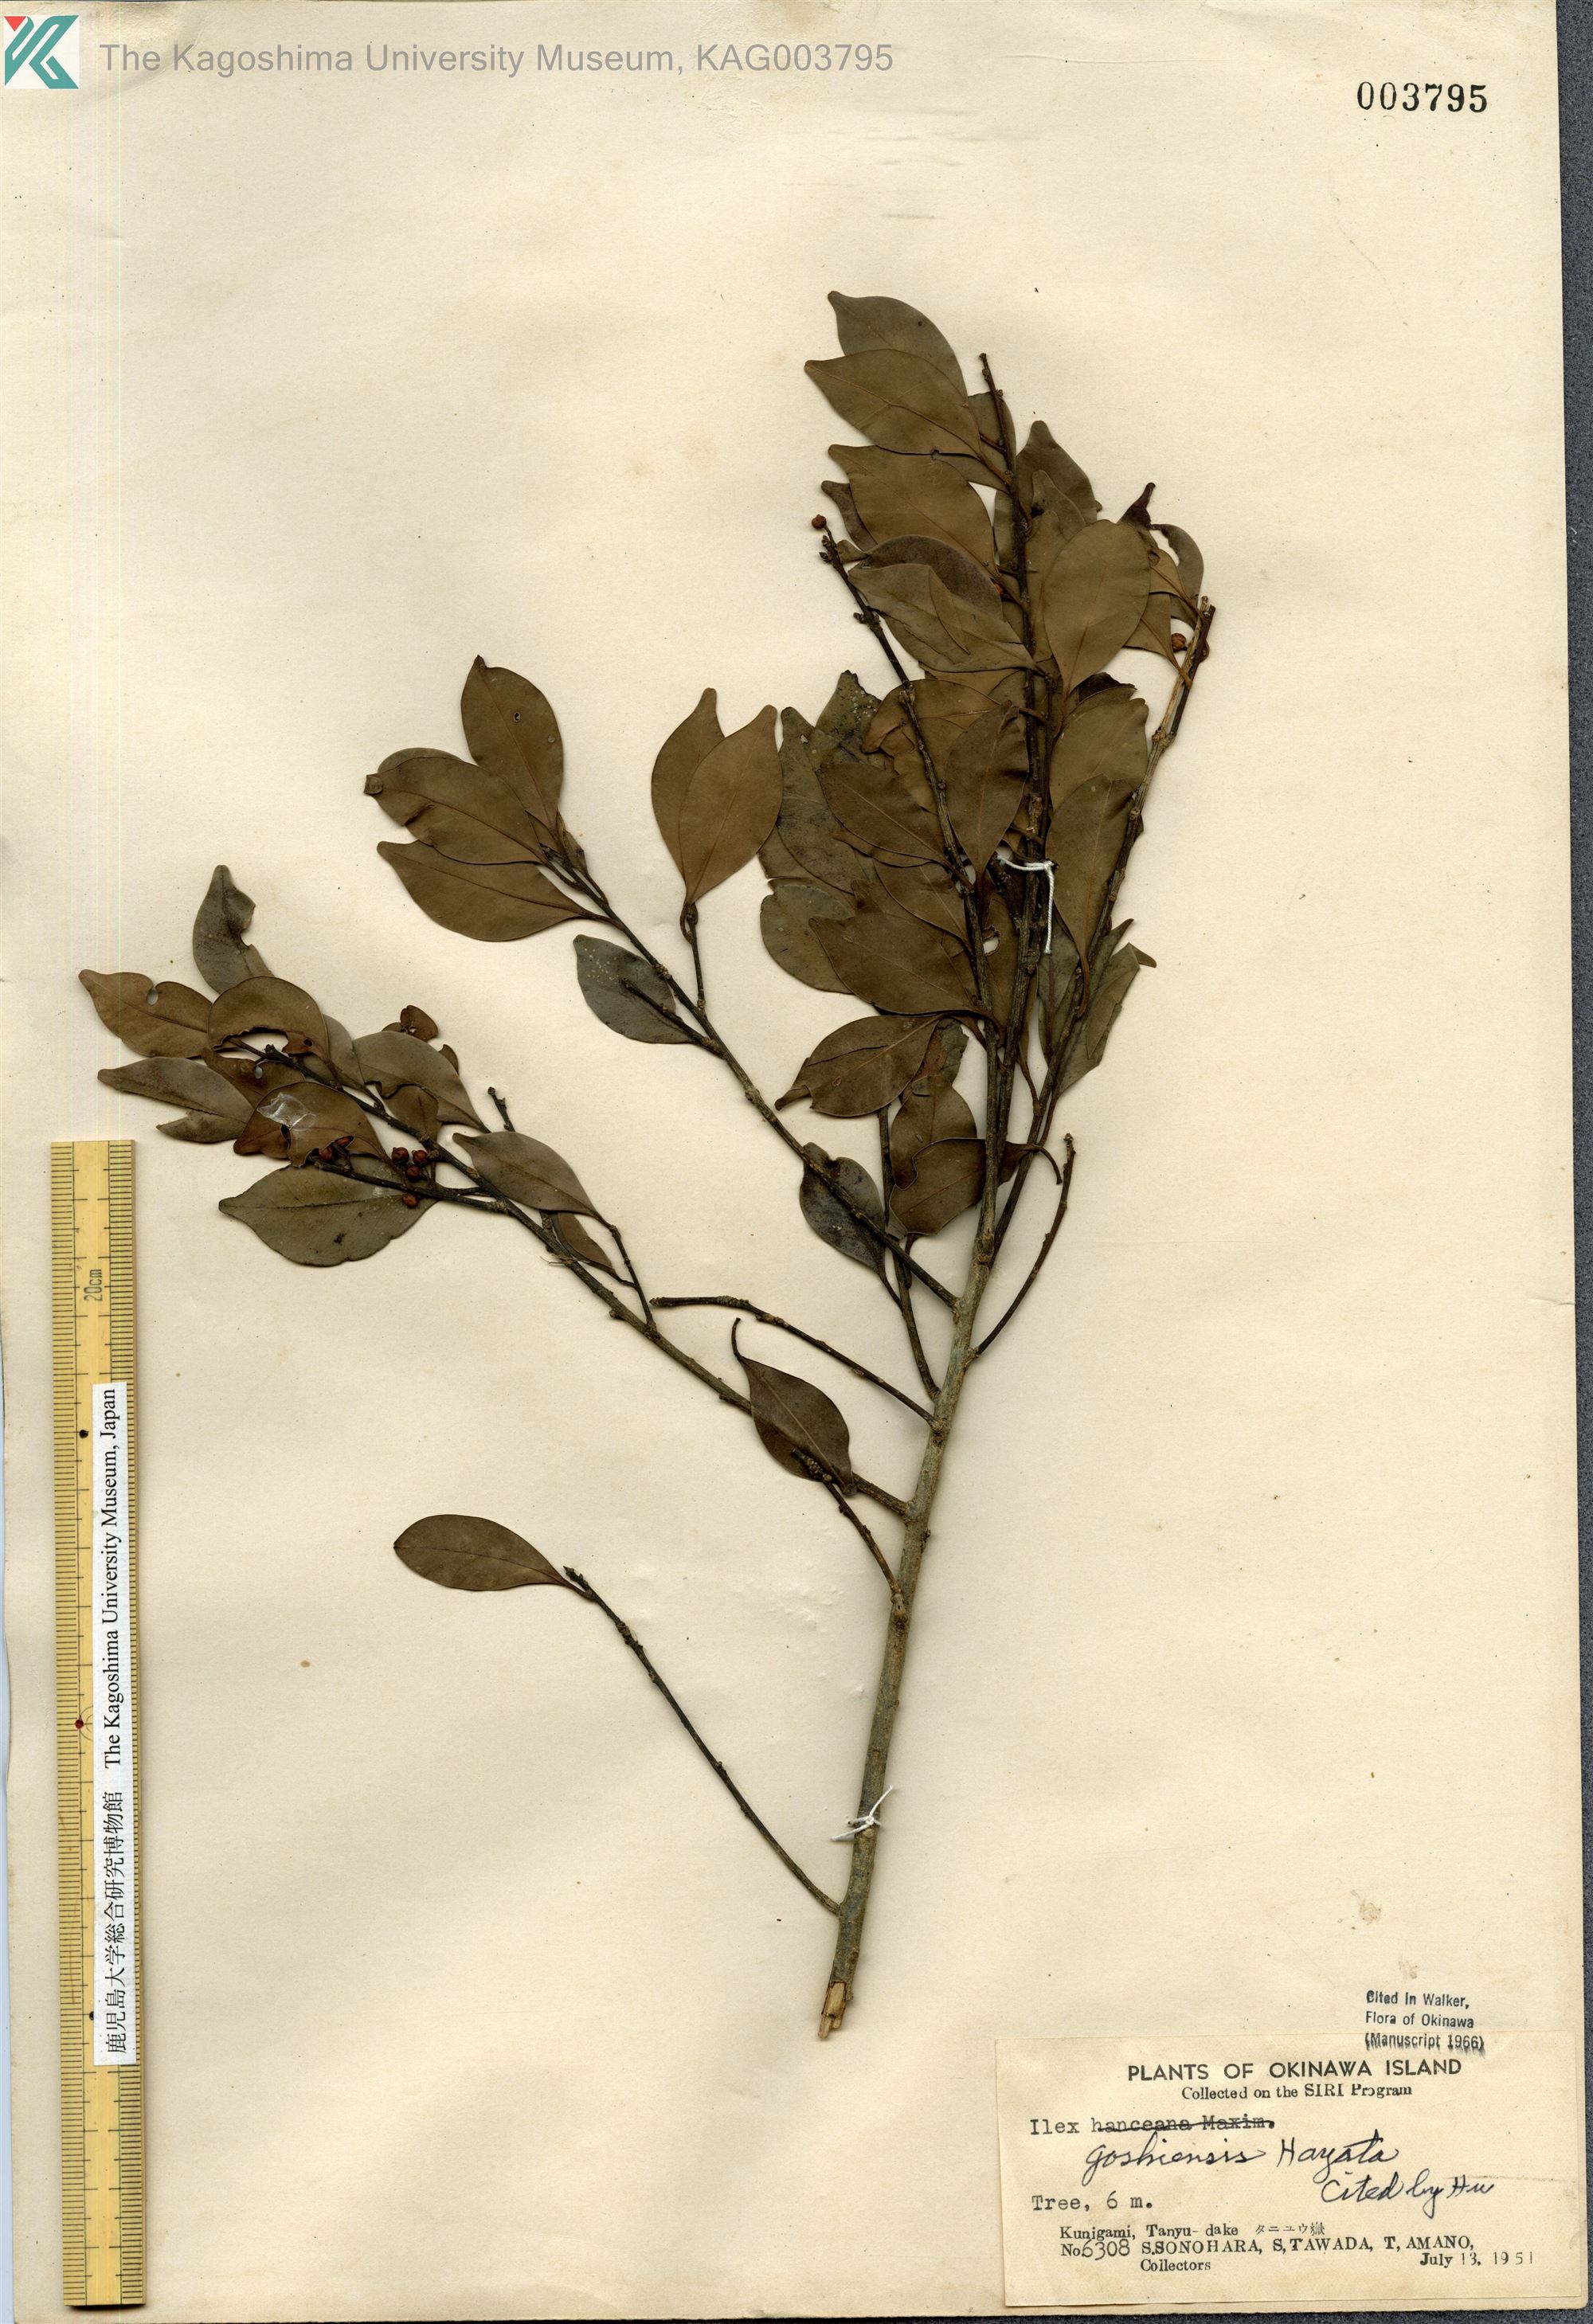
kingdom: Plantae
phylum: Tracheophyta
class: Magnoliopsida
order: Aquifoliales
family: Aquifoliaceae
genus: Ilex
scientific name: Ilex goshiensis
